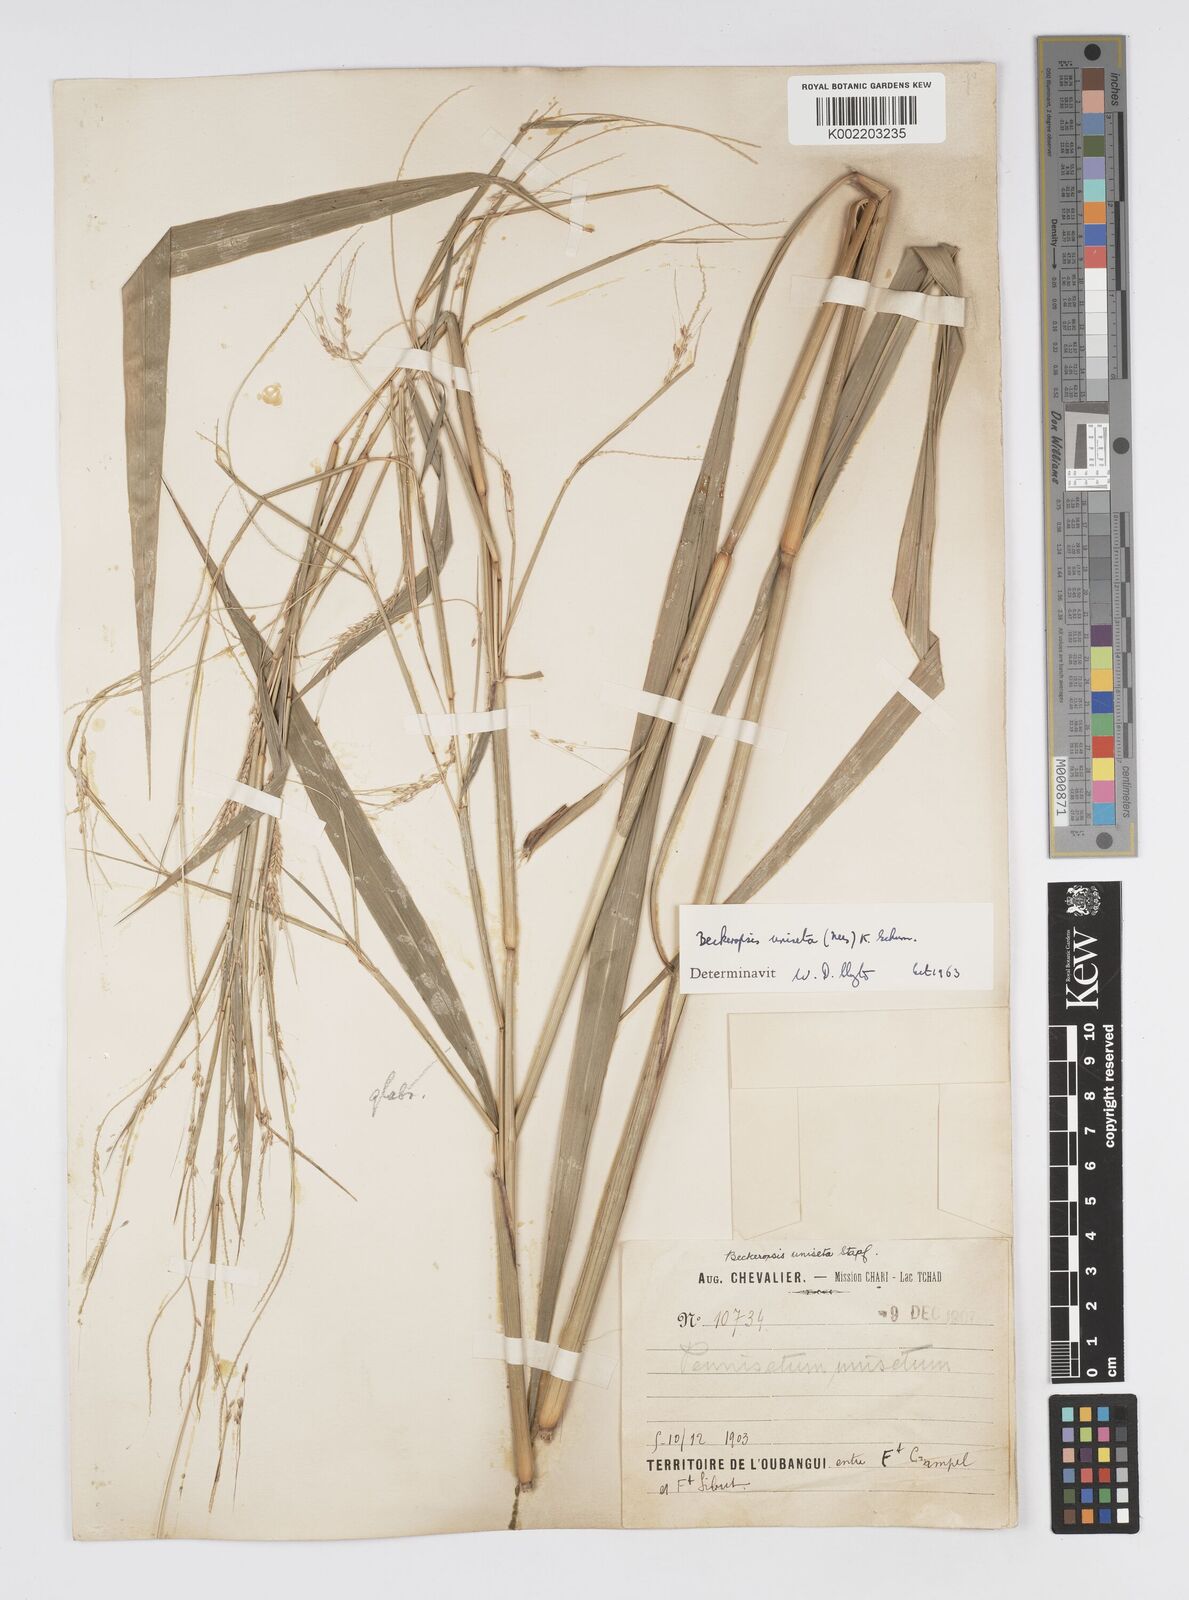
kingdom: Plantae
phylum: Tracheophyta
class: Liliopsida
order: Poales
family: Poaceae
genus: Cenchrus
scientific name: Cenchrus unisetus
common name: Natal grass
